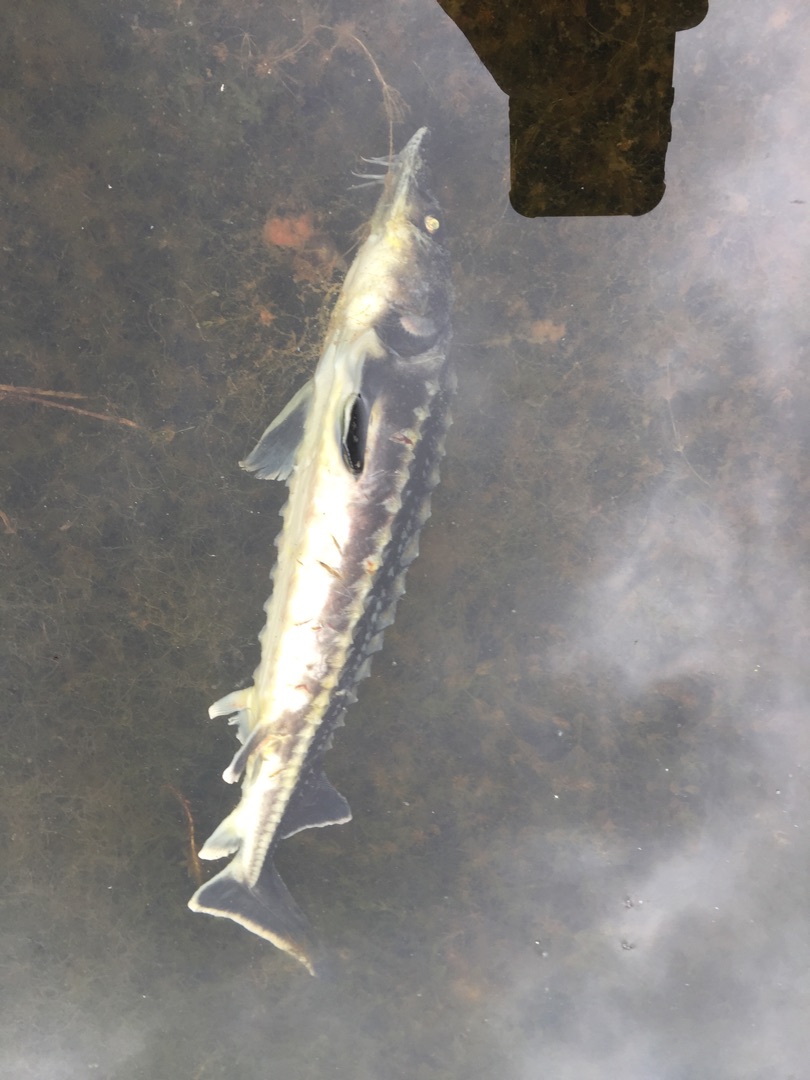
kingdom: Animalia
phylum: Chordata
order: Acipenseriformes
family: Acipenseridae
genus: Acipenser
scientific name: Acipenser gueldenstaedtii
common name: Diamantstør
